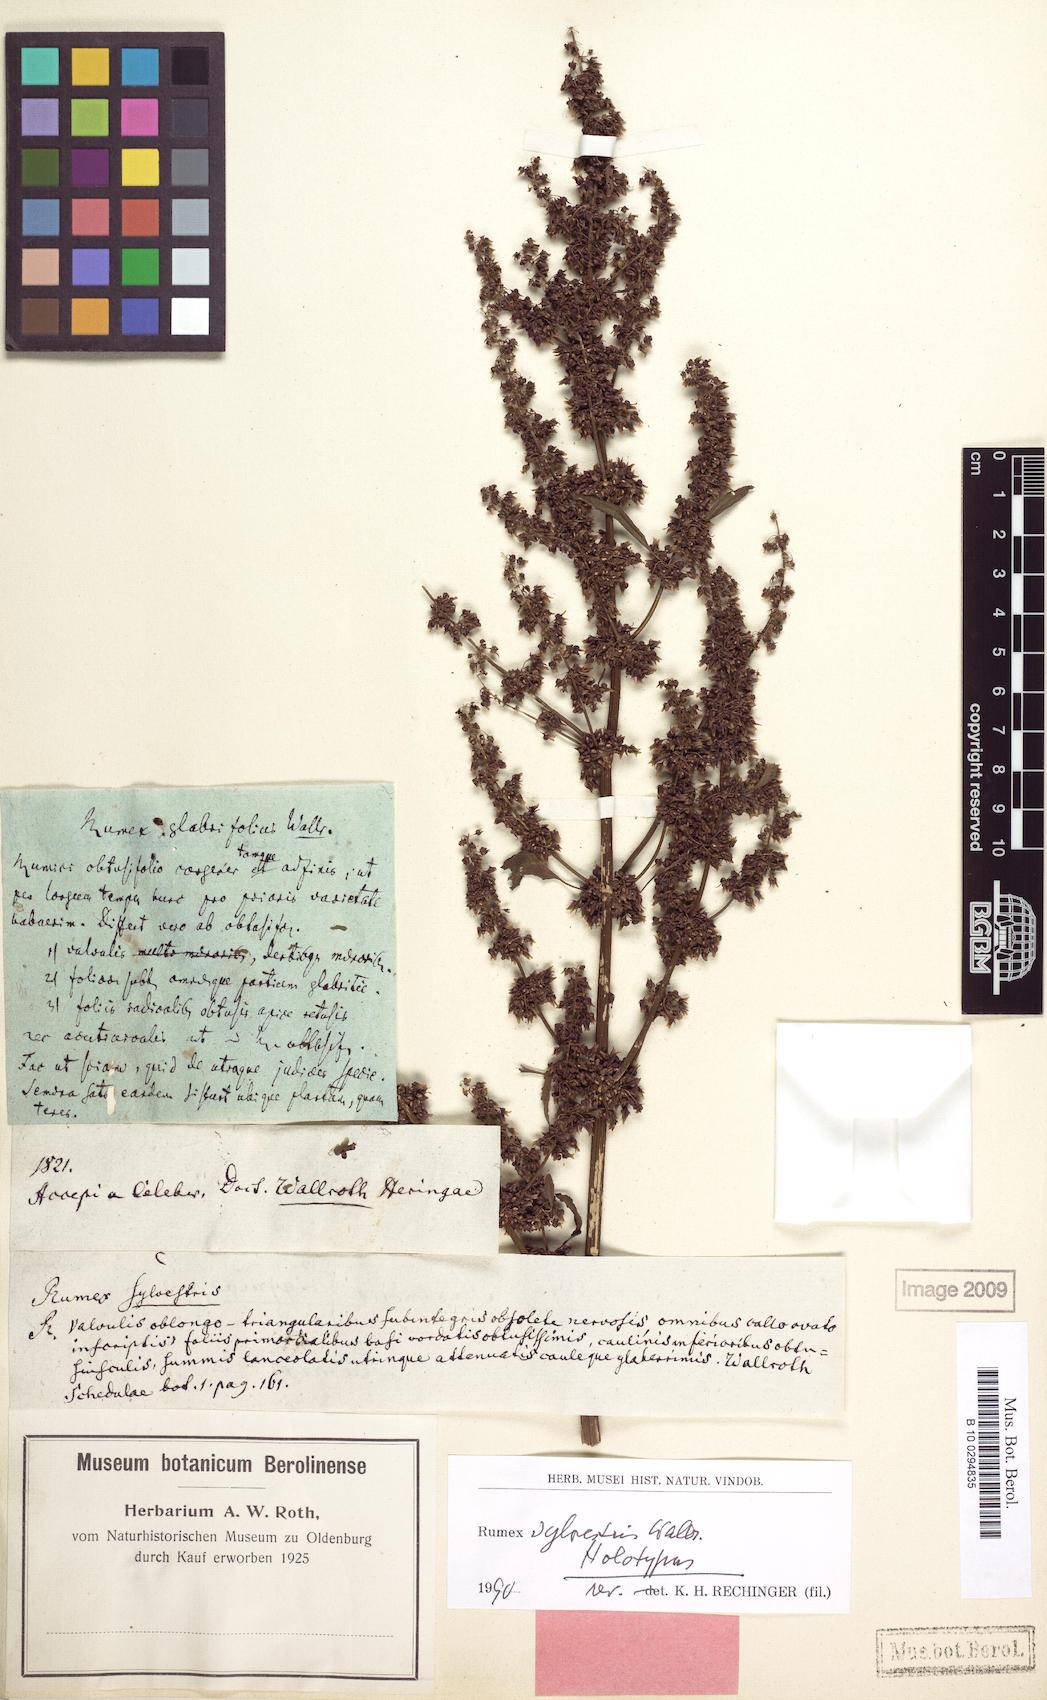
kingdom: Plantae
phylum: Tracheophyta
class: Magnoliopsida
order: Caryophyllales
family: Polygonaceae
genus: Rumex
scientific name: Rumex obtusifolius
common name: Bitter dock
